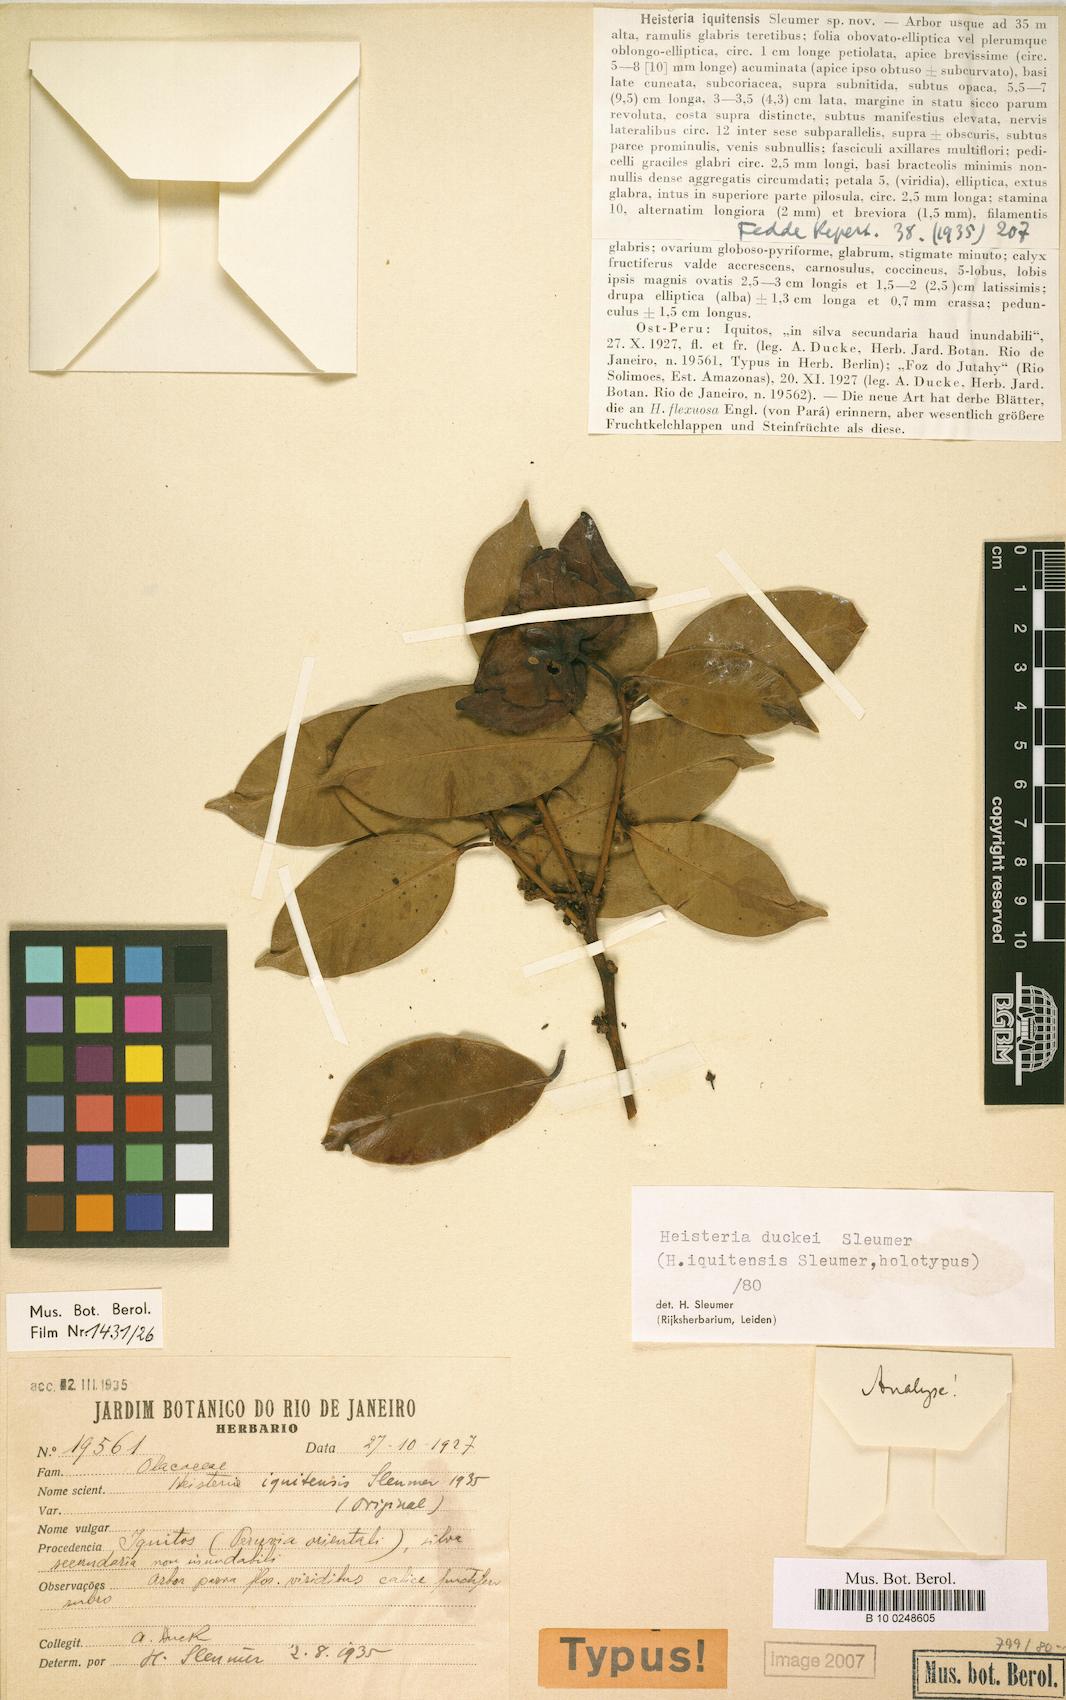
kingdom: Plantae
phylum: Tracheophyta
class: Magnoliopsida
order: Santalales
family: Erythropalaceae
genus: Heisteria
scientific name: Heisteria duckei
